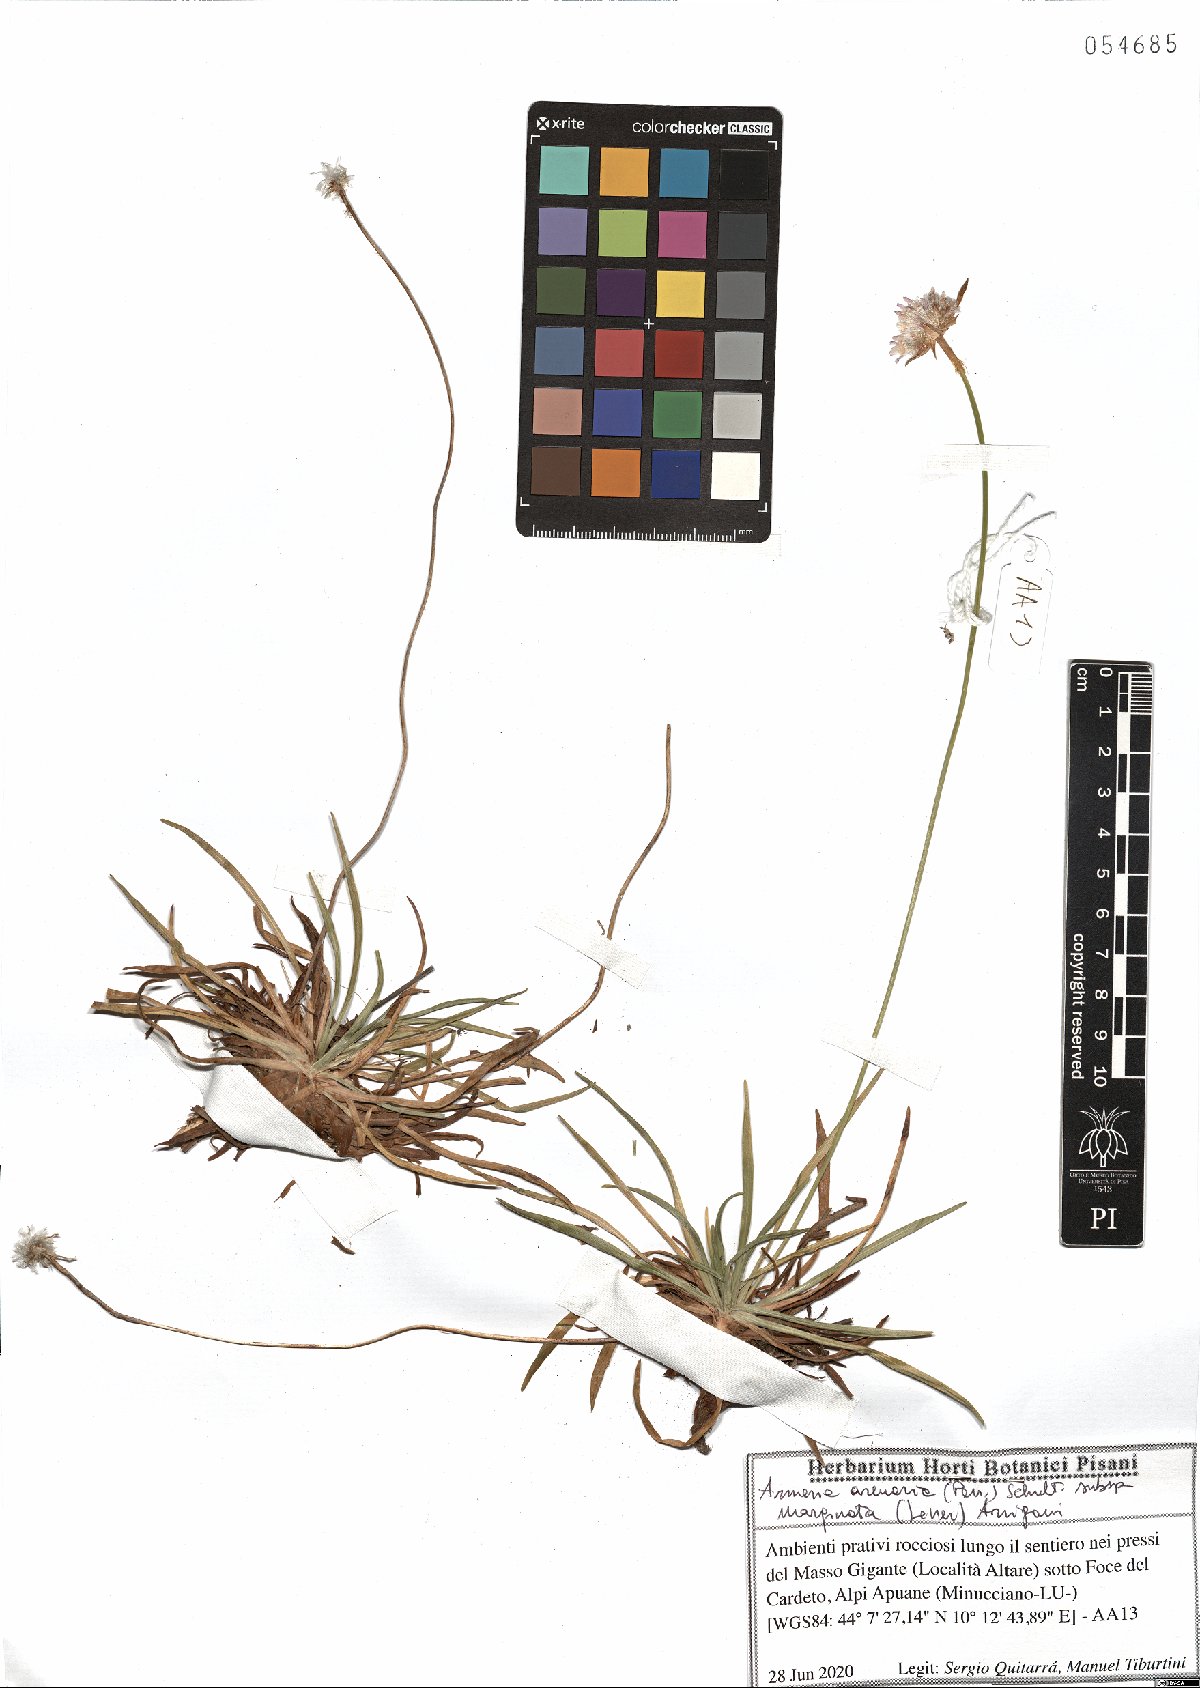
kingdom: Plantae
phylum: Tracheophyta
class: Magnoliopsida
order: Caryophyllales
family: Plumbaginaceae
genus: Armeria
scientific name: Armeria arenaria
